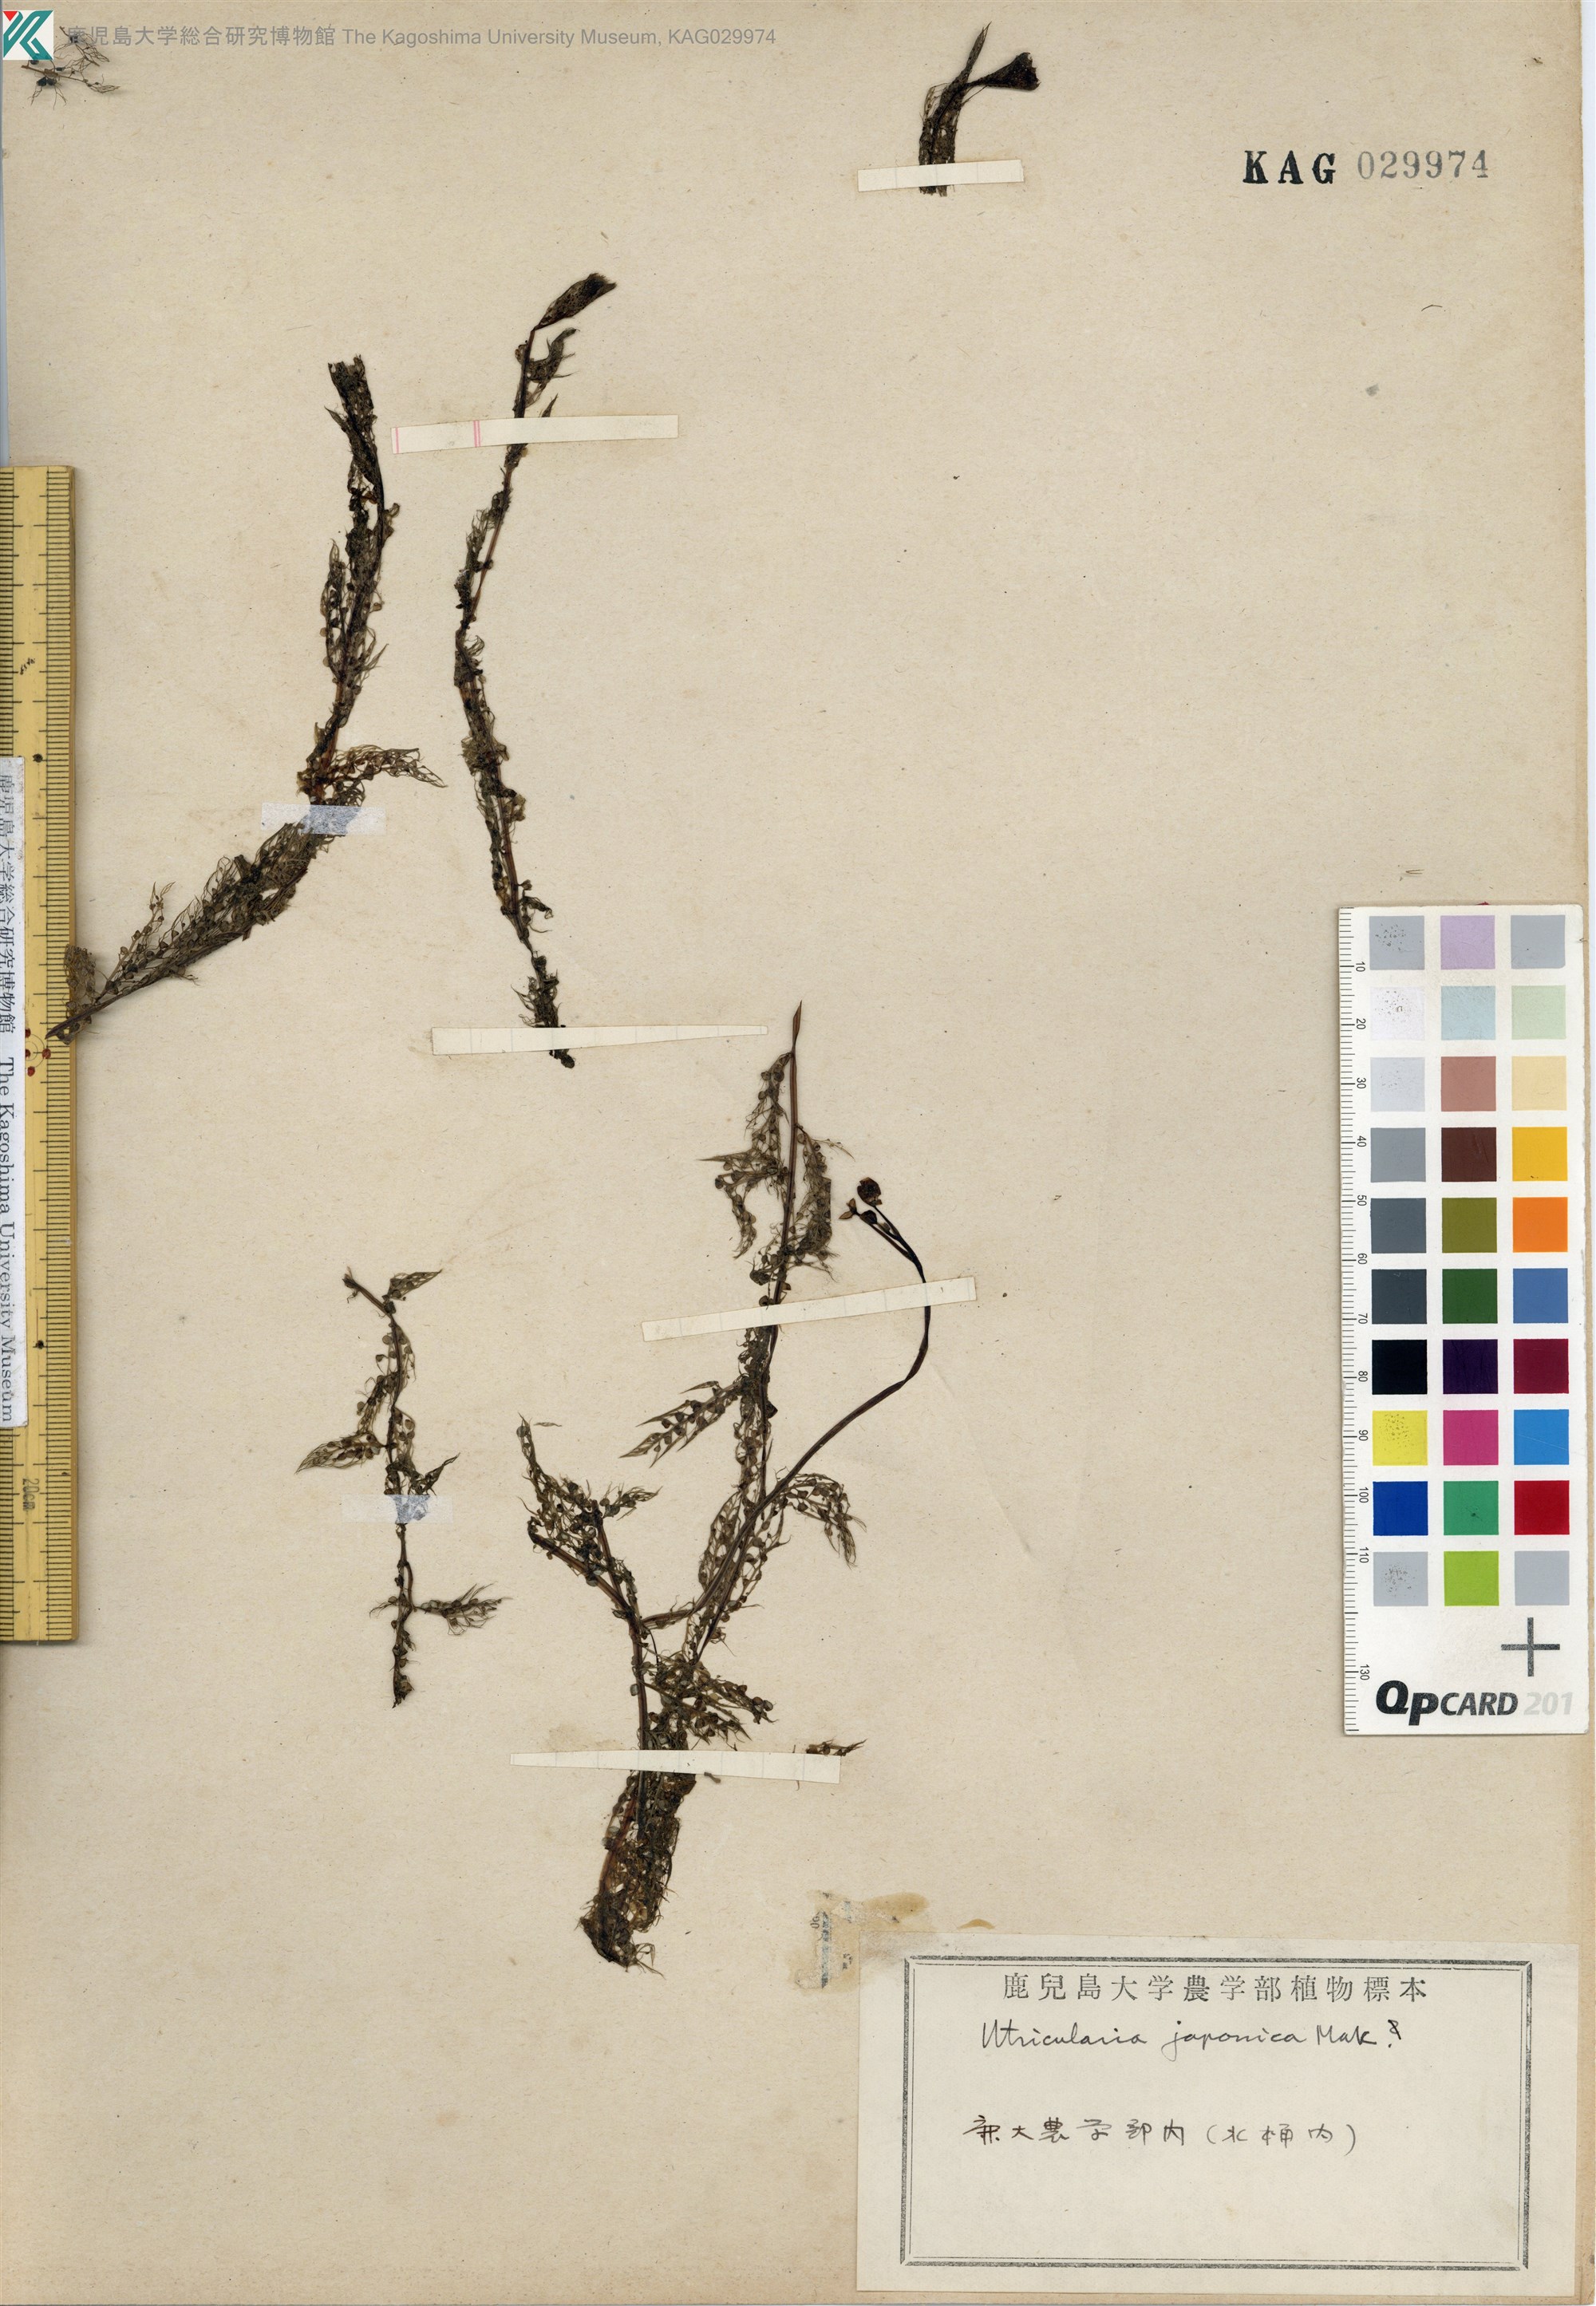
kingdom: Plantae
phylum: Tracheophyta
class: Magnoliopsida
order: Lamiales
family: Lentibulariaceae
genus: Utricularia
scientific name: Utricularia japonica
